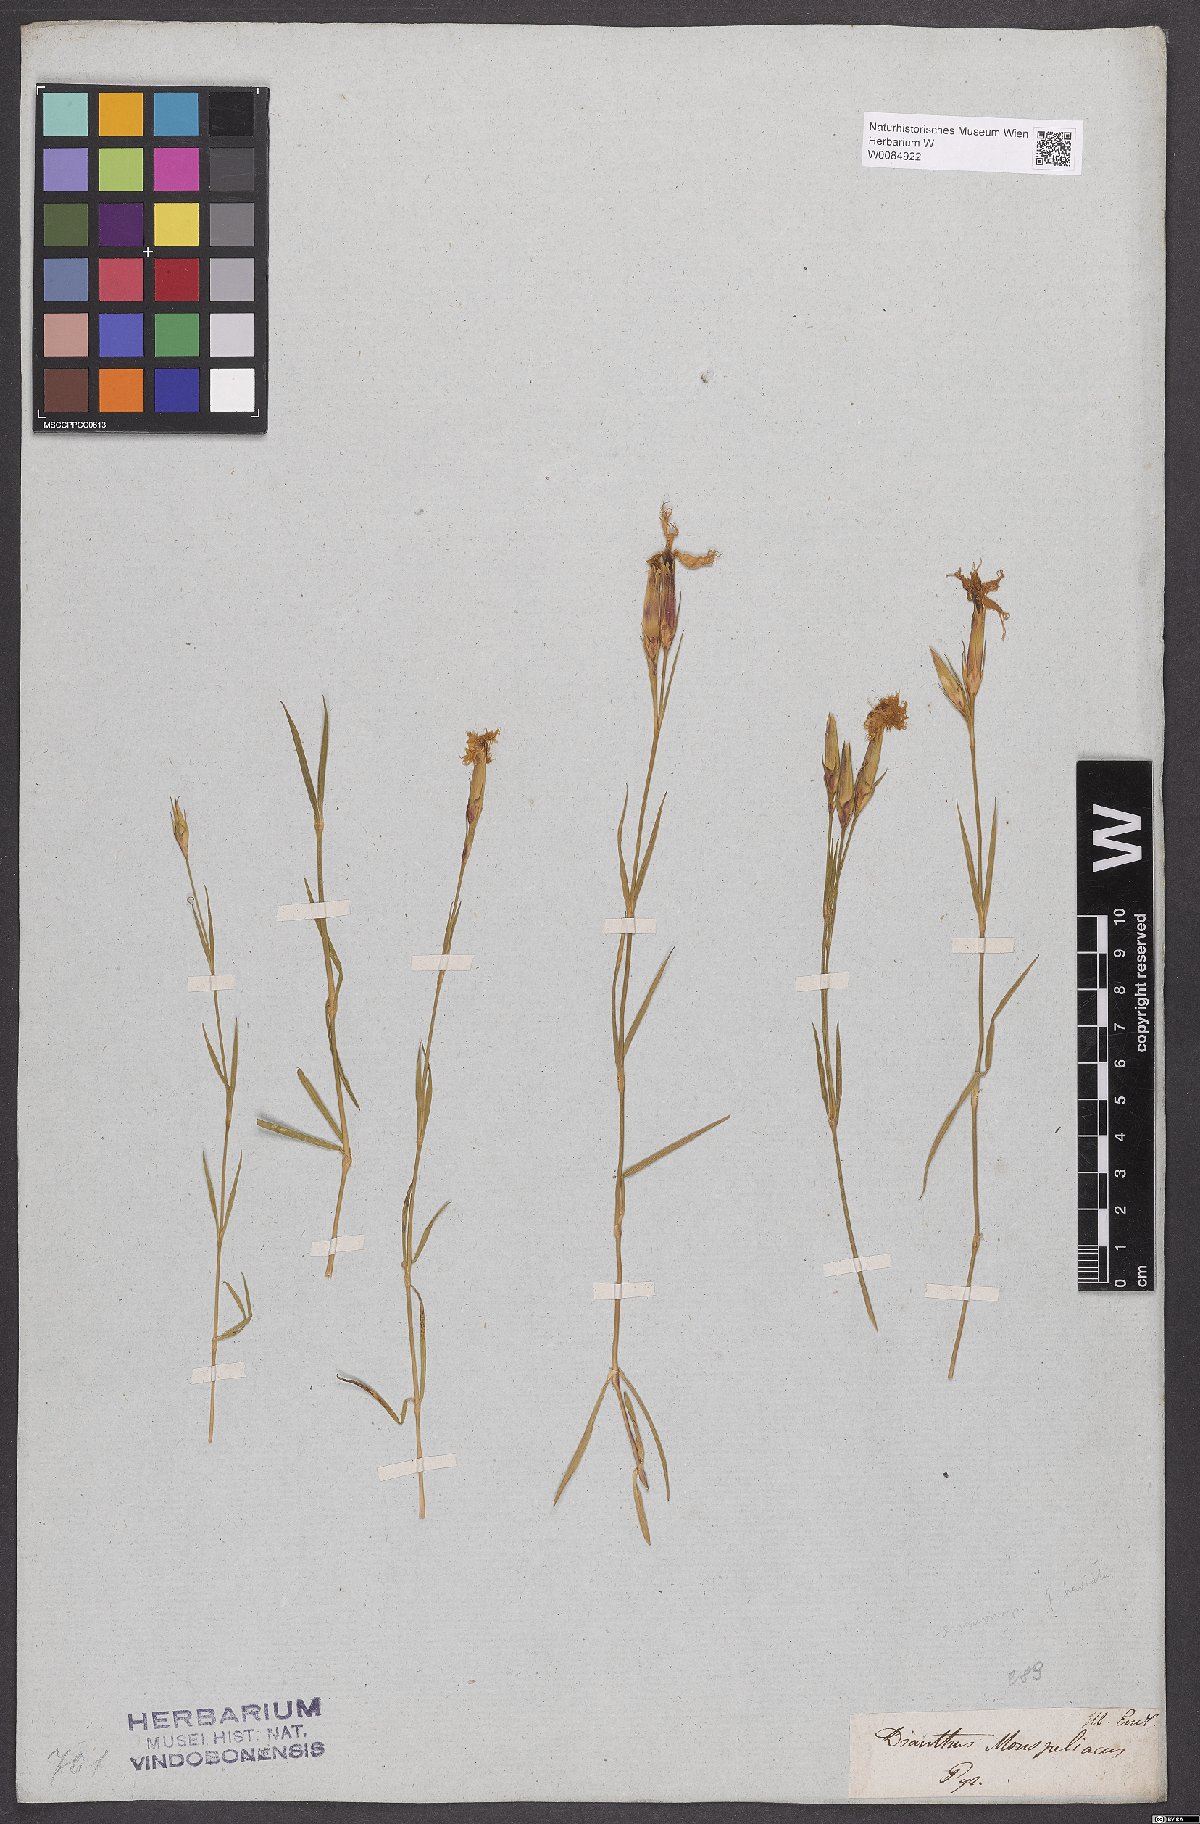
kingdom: Plantae
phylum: Tracheophyta
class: Magnoliopsida
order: Caryophyllales
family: Caryophyllaceae
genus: Dianthus
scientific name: Dianthus hyssopifolius
